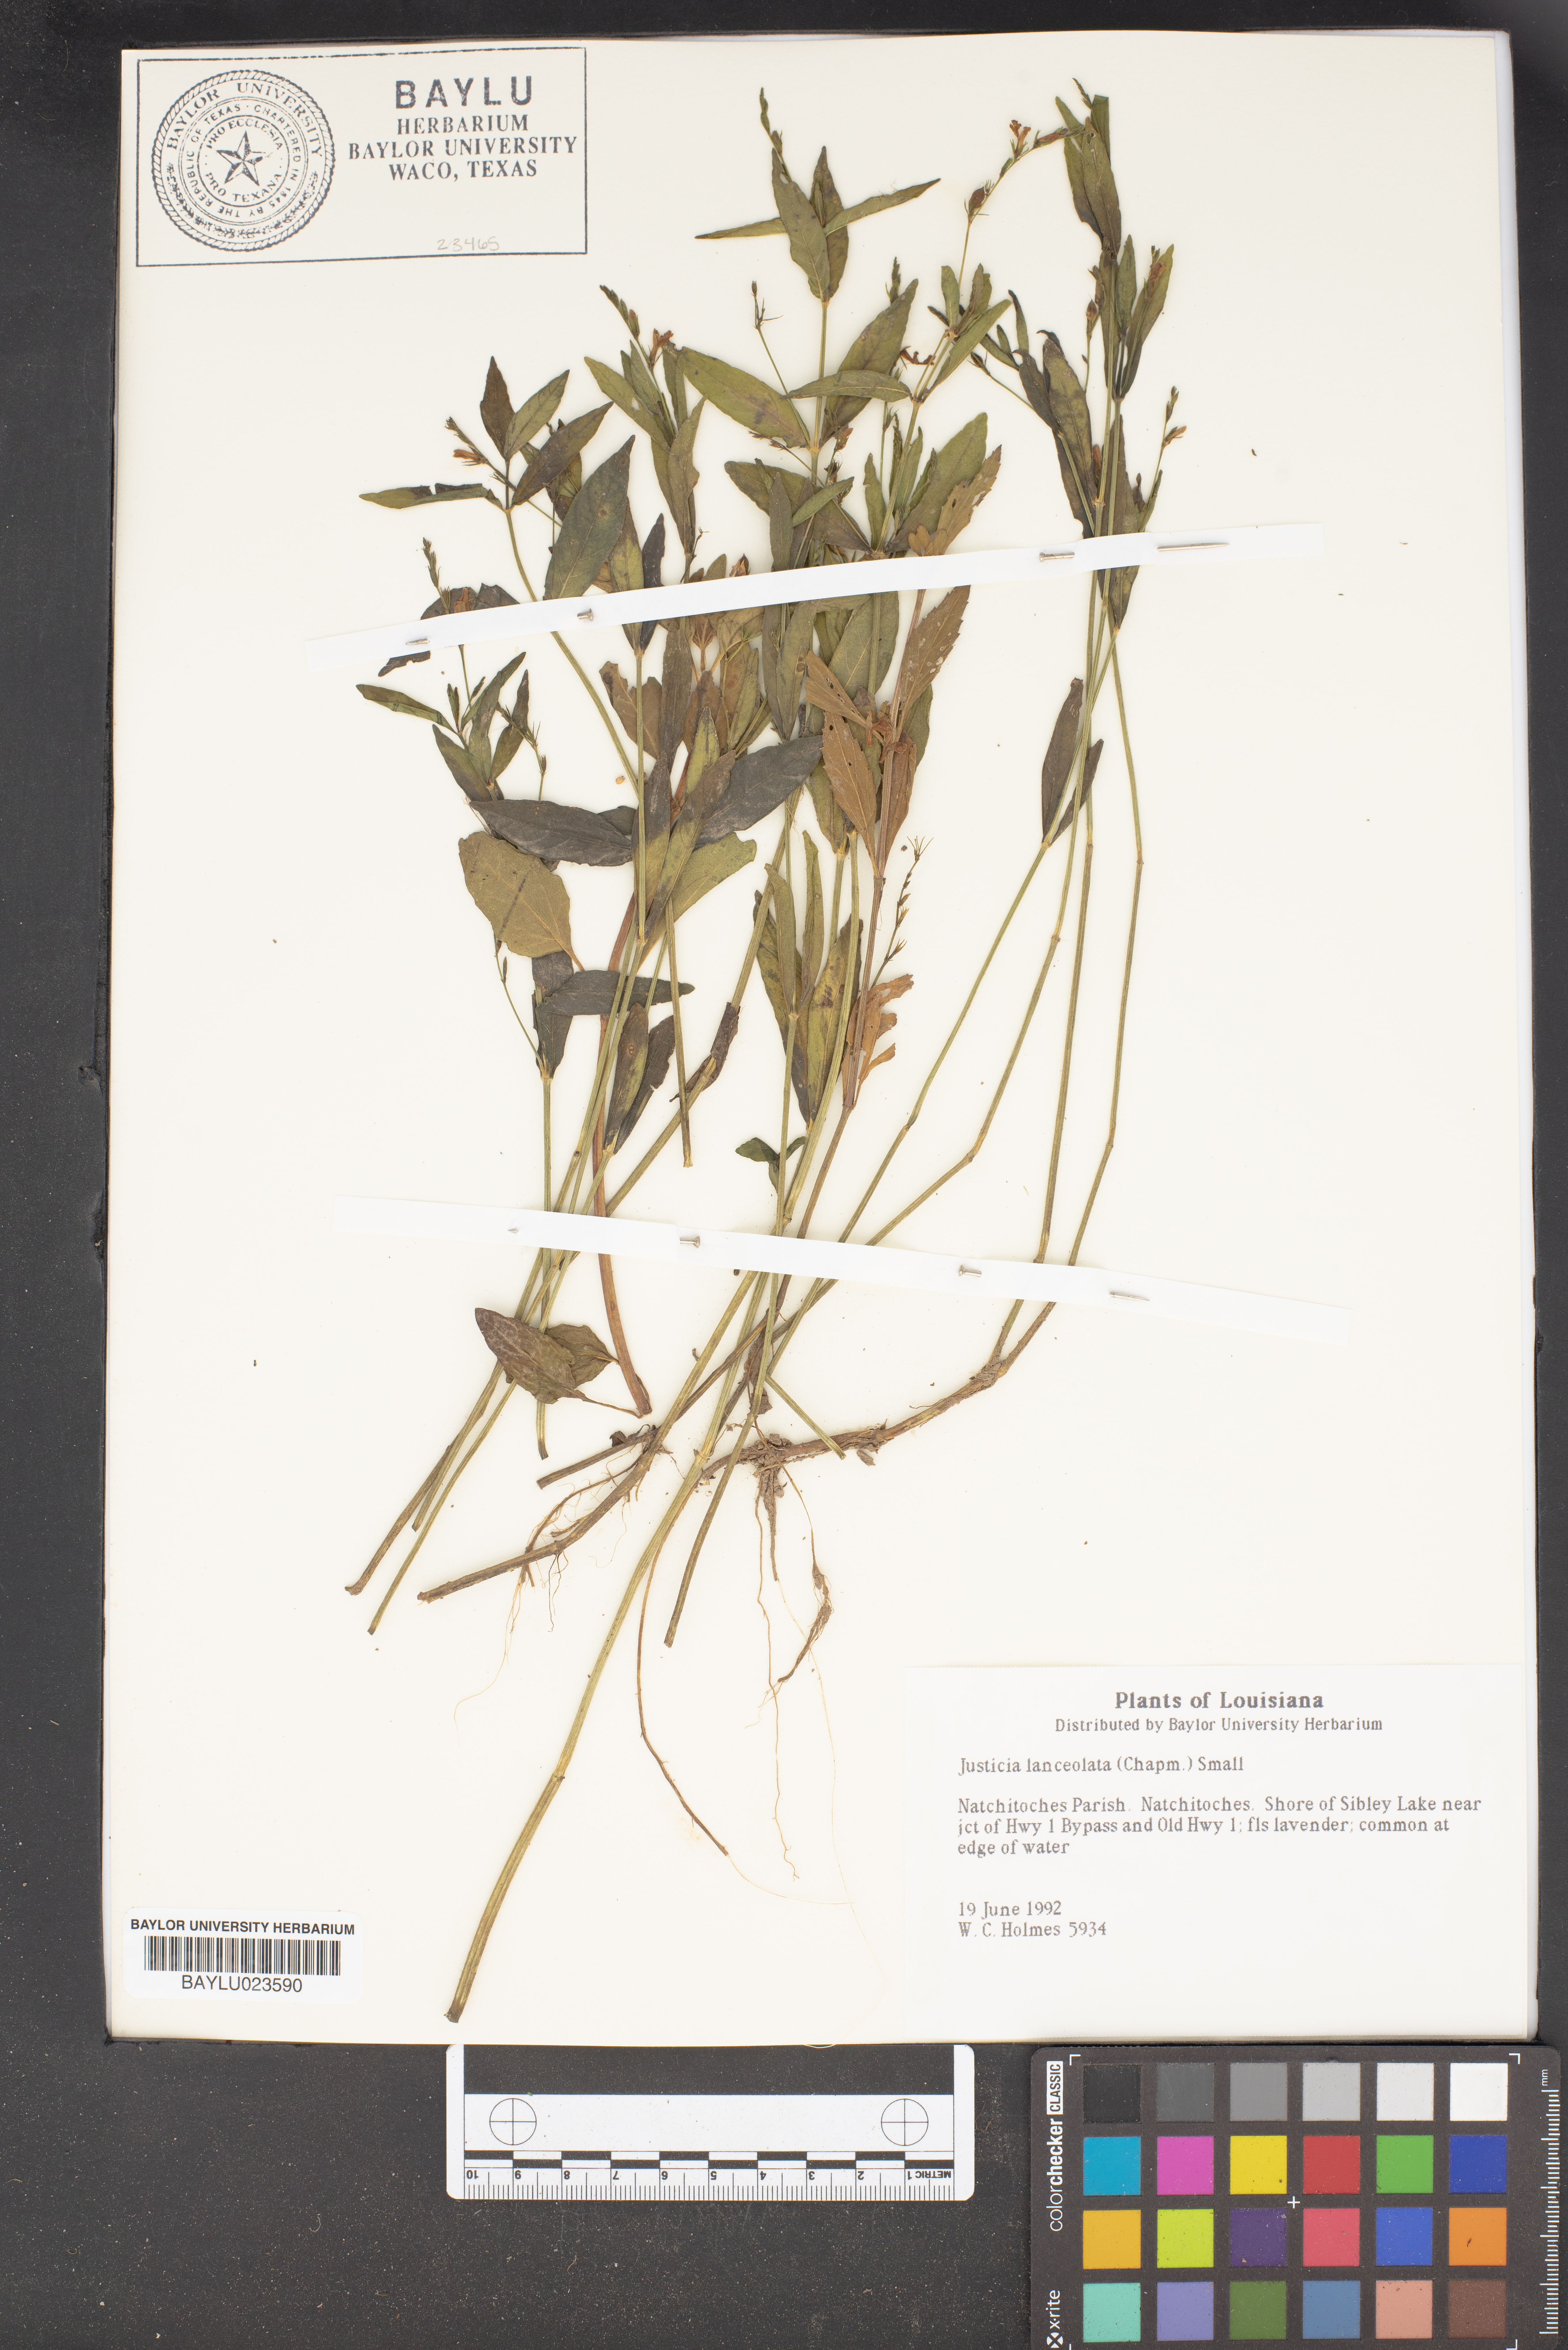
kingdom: Plantae
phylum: Tracheophyta
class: Magnoliopsida
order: Lamiales
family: Acanthaceae
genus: Justicia
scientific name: Justicia lanceolata
